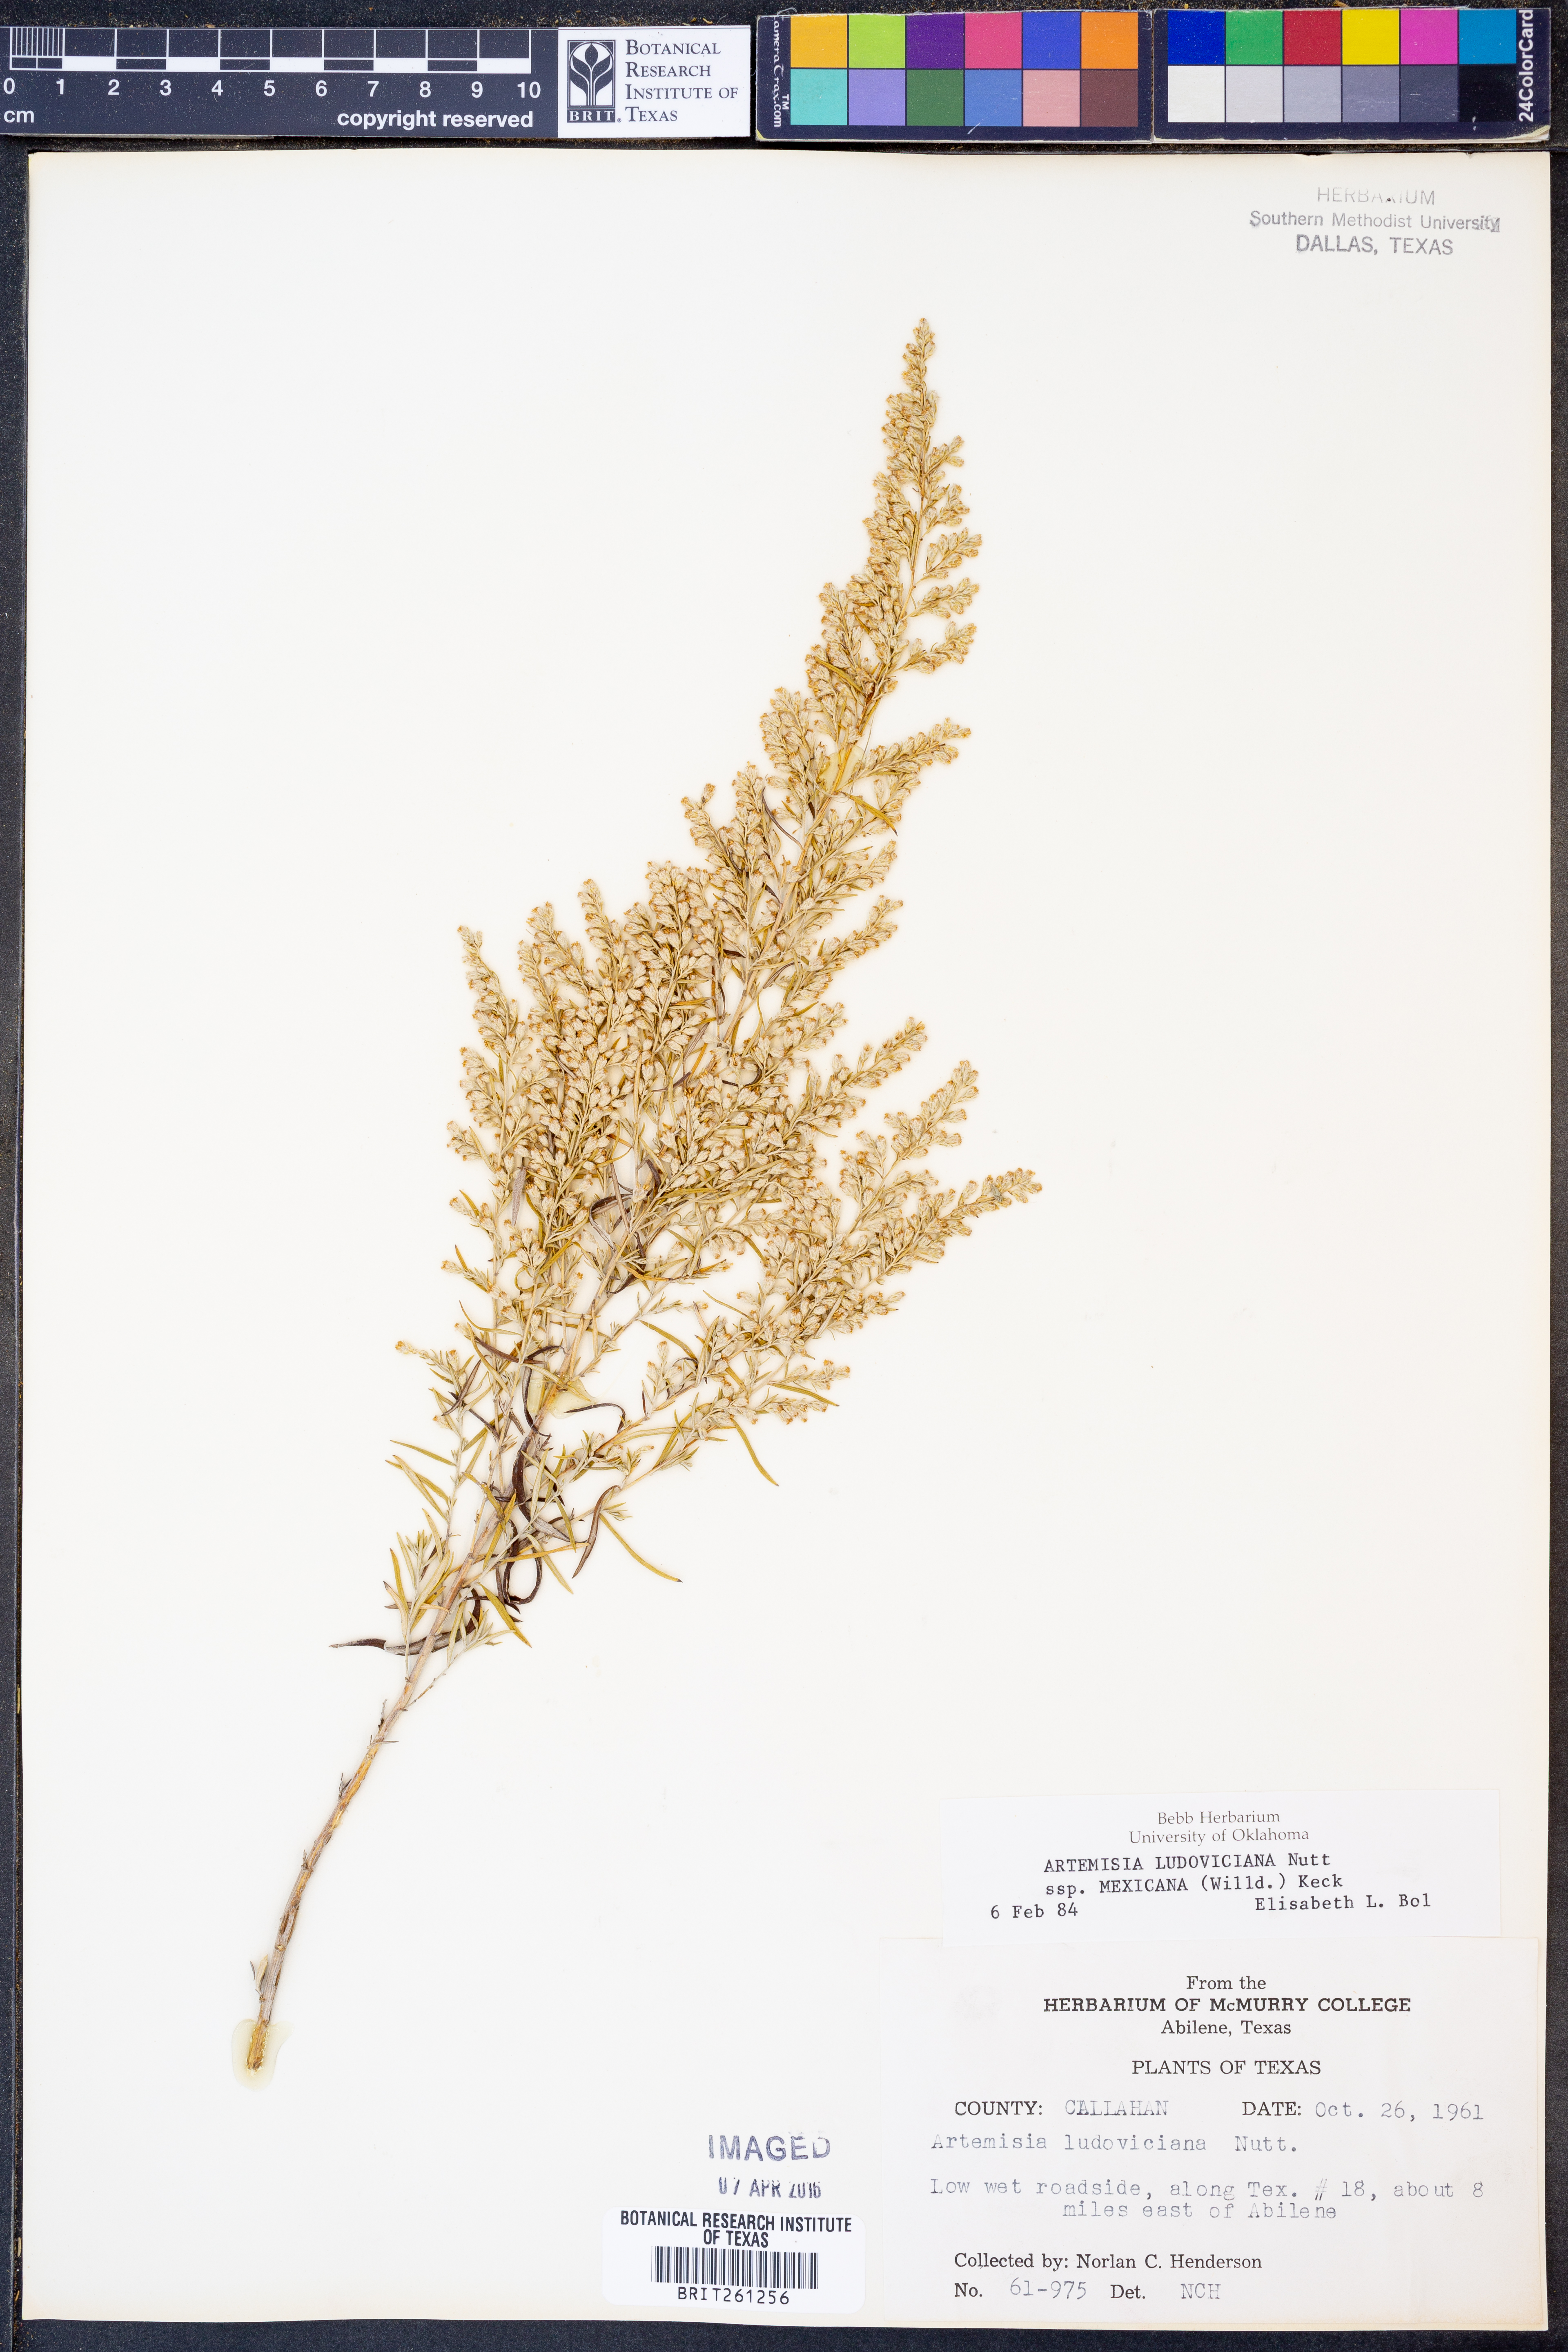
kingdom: Plantae
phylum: Tracheophyta
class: Magnoliopsida
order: Asterales
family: Asteraceae
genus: Artemisia
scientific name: Artemisia ludoviciana
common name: Western mugwort
